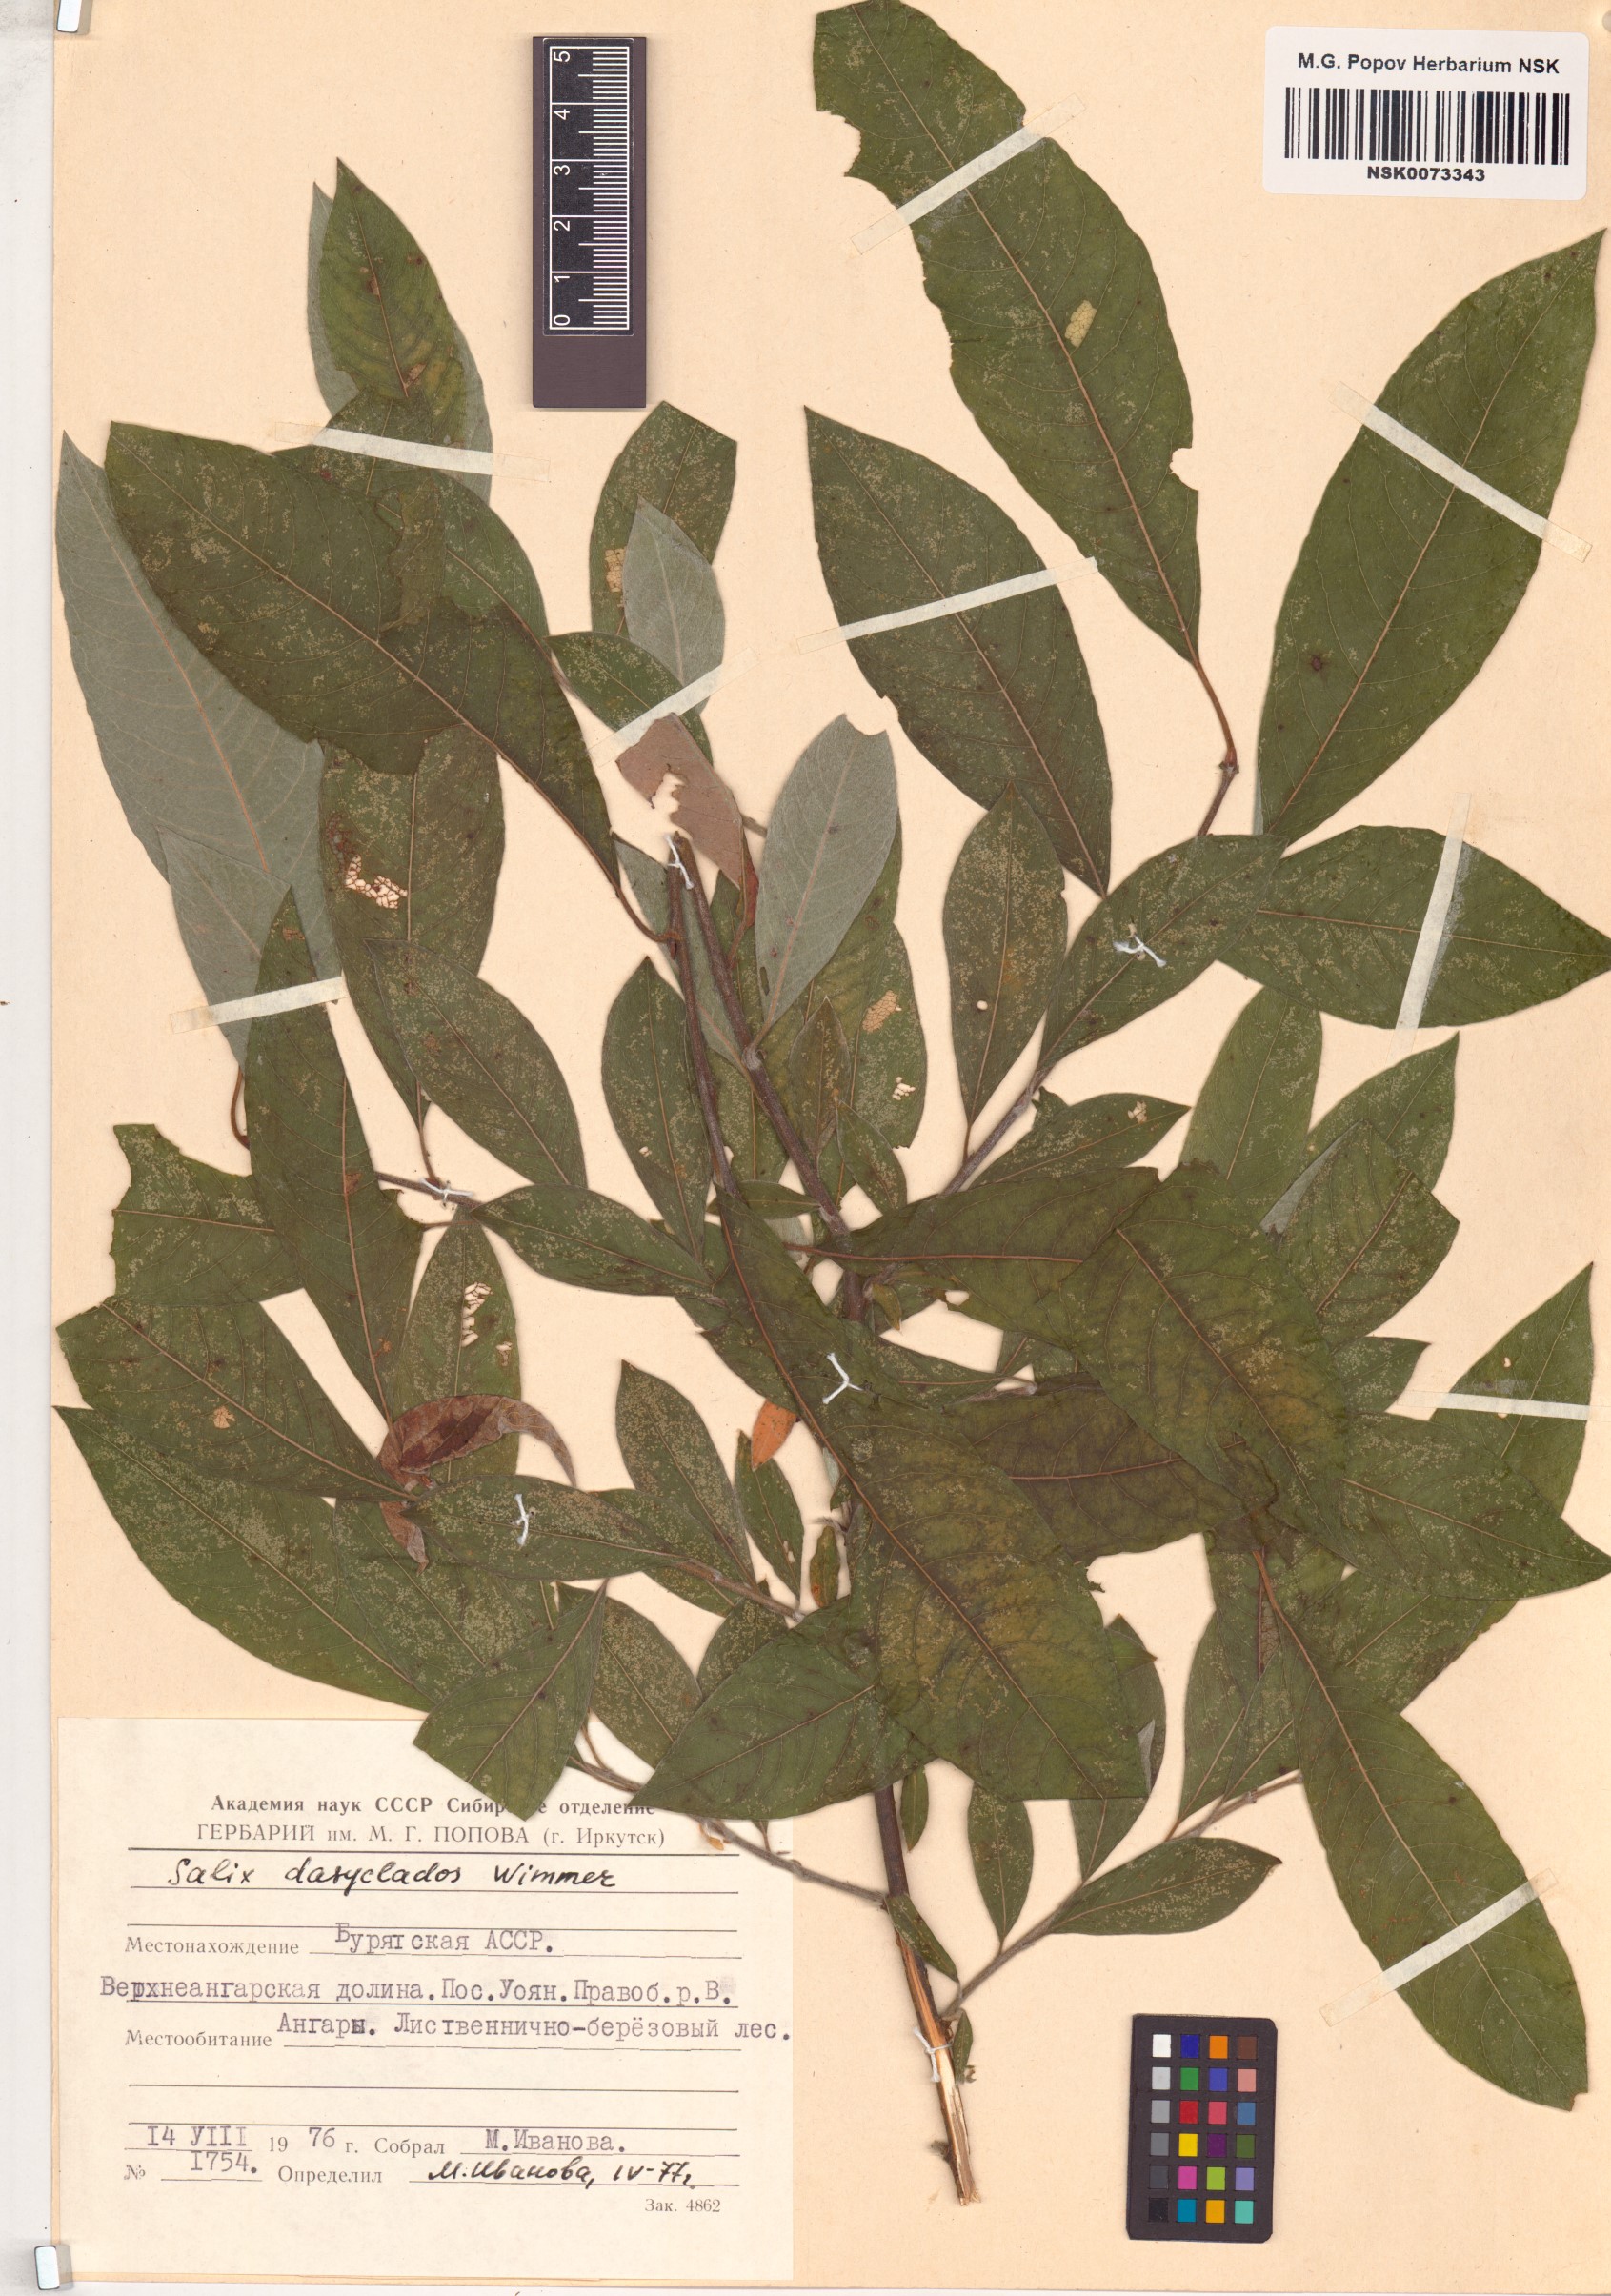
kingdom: Plantae
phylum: Tracheophyta
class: Magnoliopsida
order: Malpighiales
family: Salicaceae
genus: Salix
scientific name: Salix gmelinii
